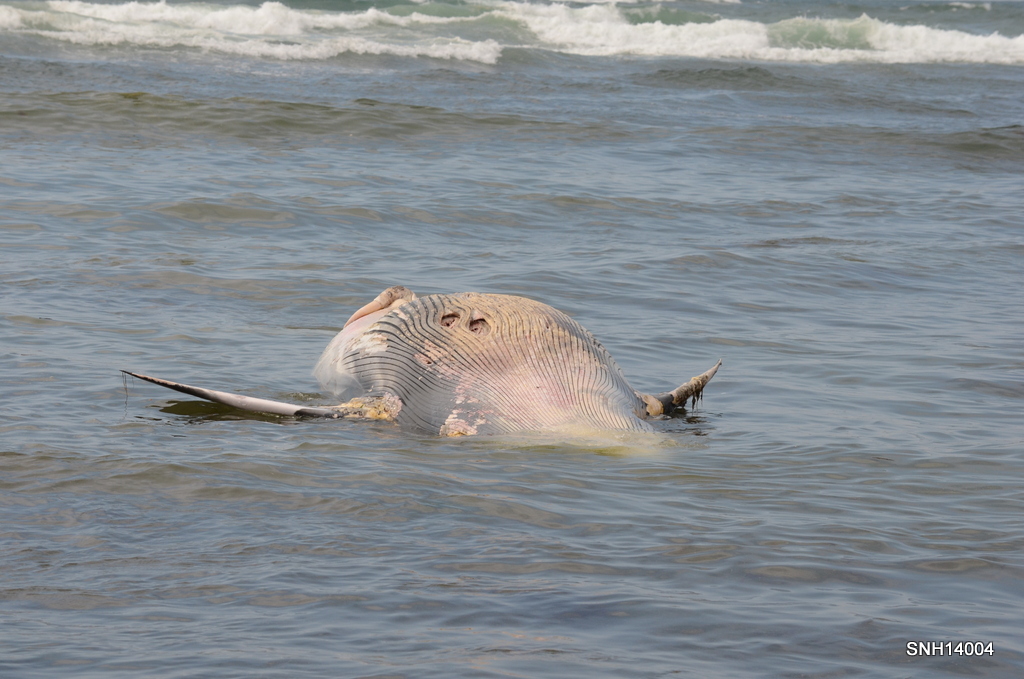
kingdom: Animalia
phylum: Chordata
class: Mammalia
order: Cetacea
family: Balaenopteridae
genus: Balaenoptera
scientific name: Balaenoptera acutorostrata
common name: Minke whale
